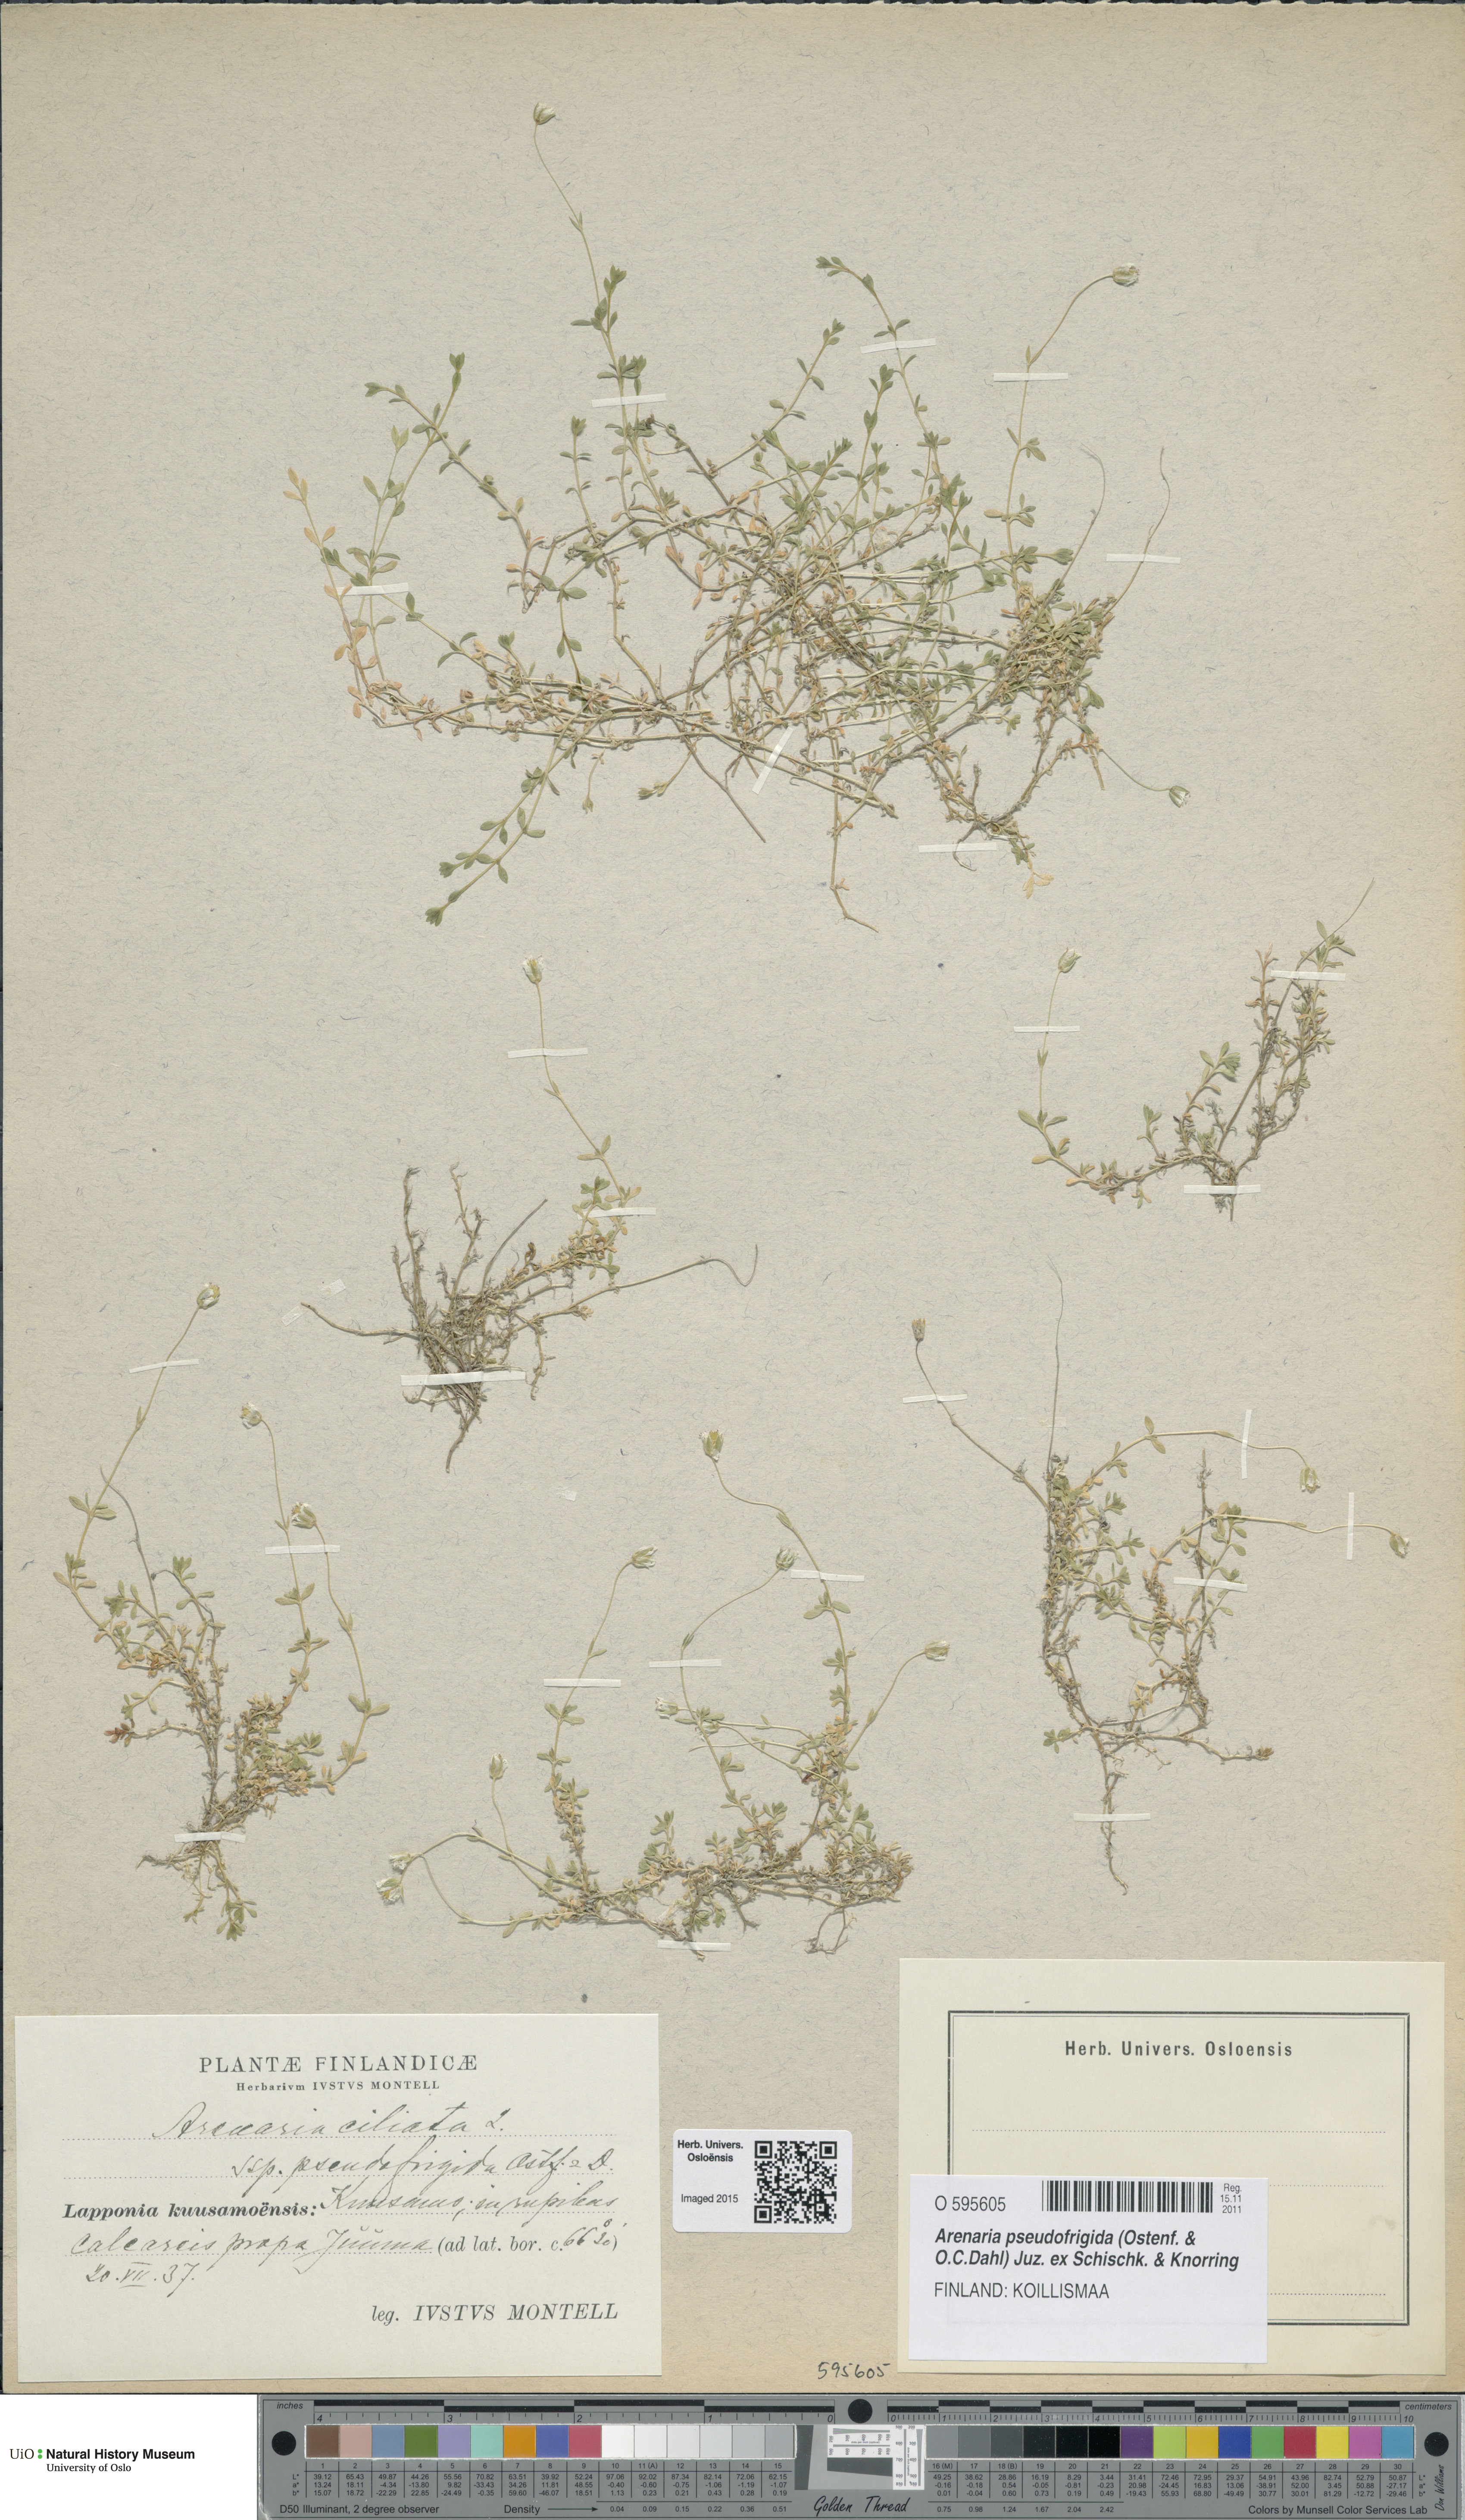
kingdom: Plantae
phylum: Tracheophyta
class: Magnoliopsida
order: Caryophyllales
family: Caryophyllaceae
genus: Arenaria
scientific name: Arenaria pseudofrigida
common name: Tundra sandwort
